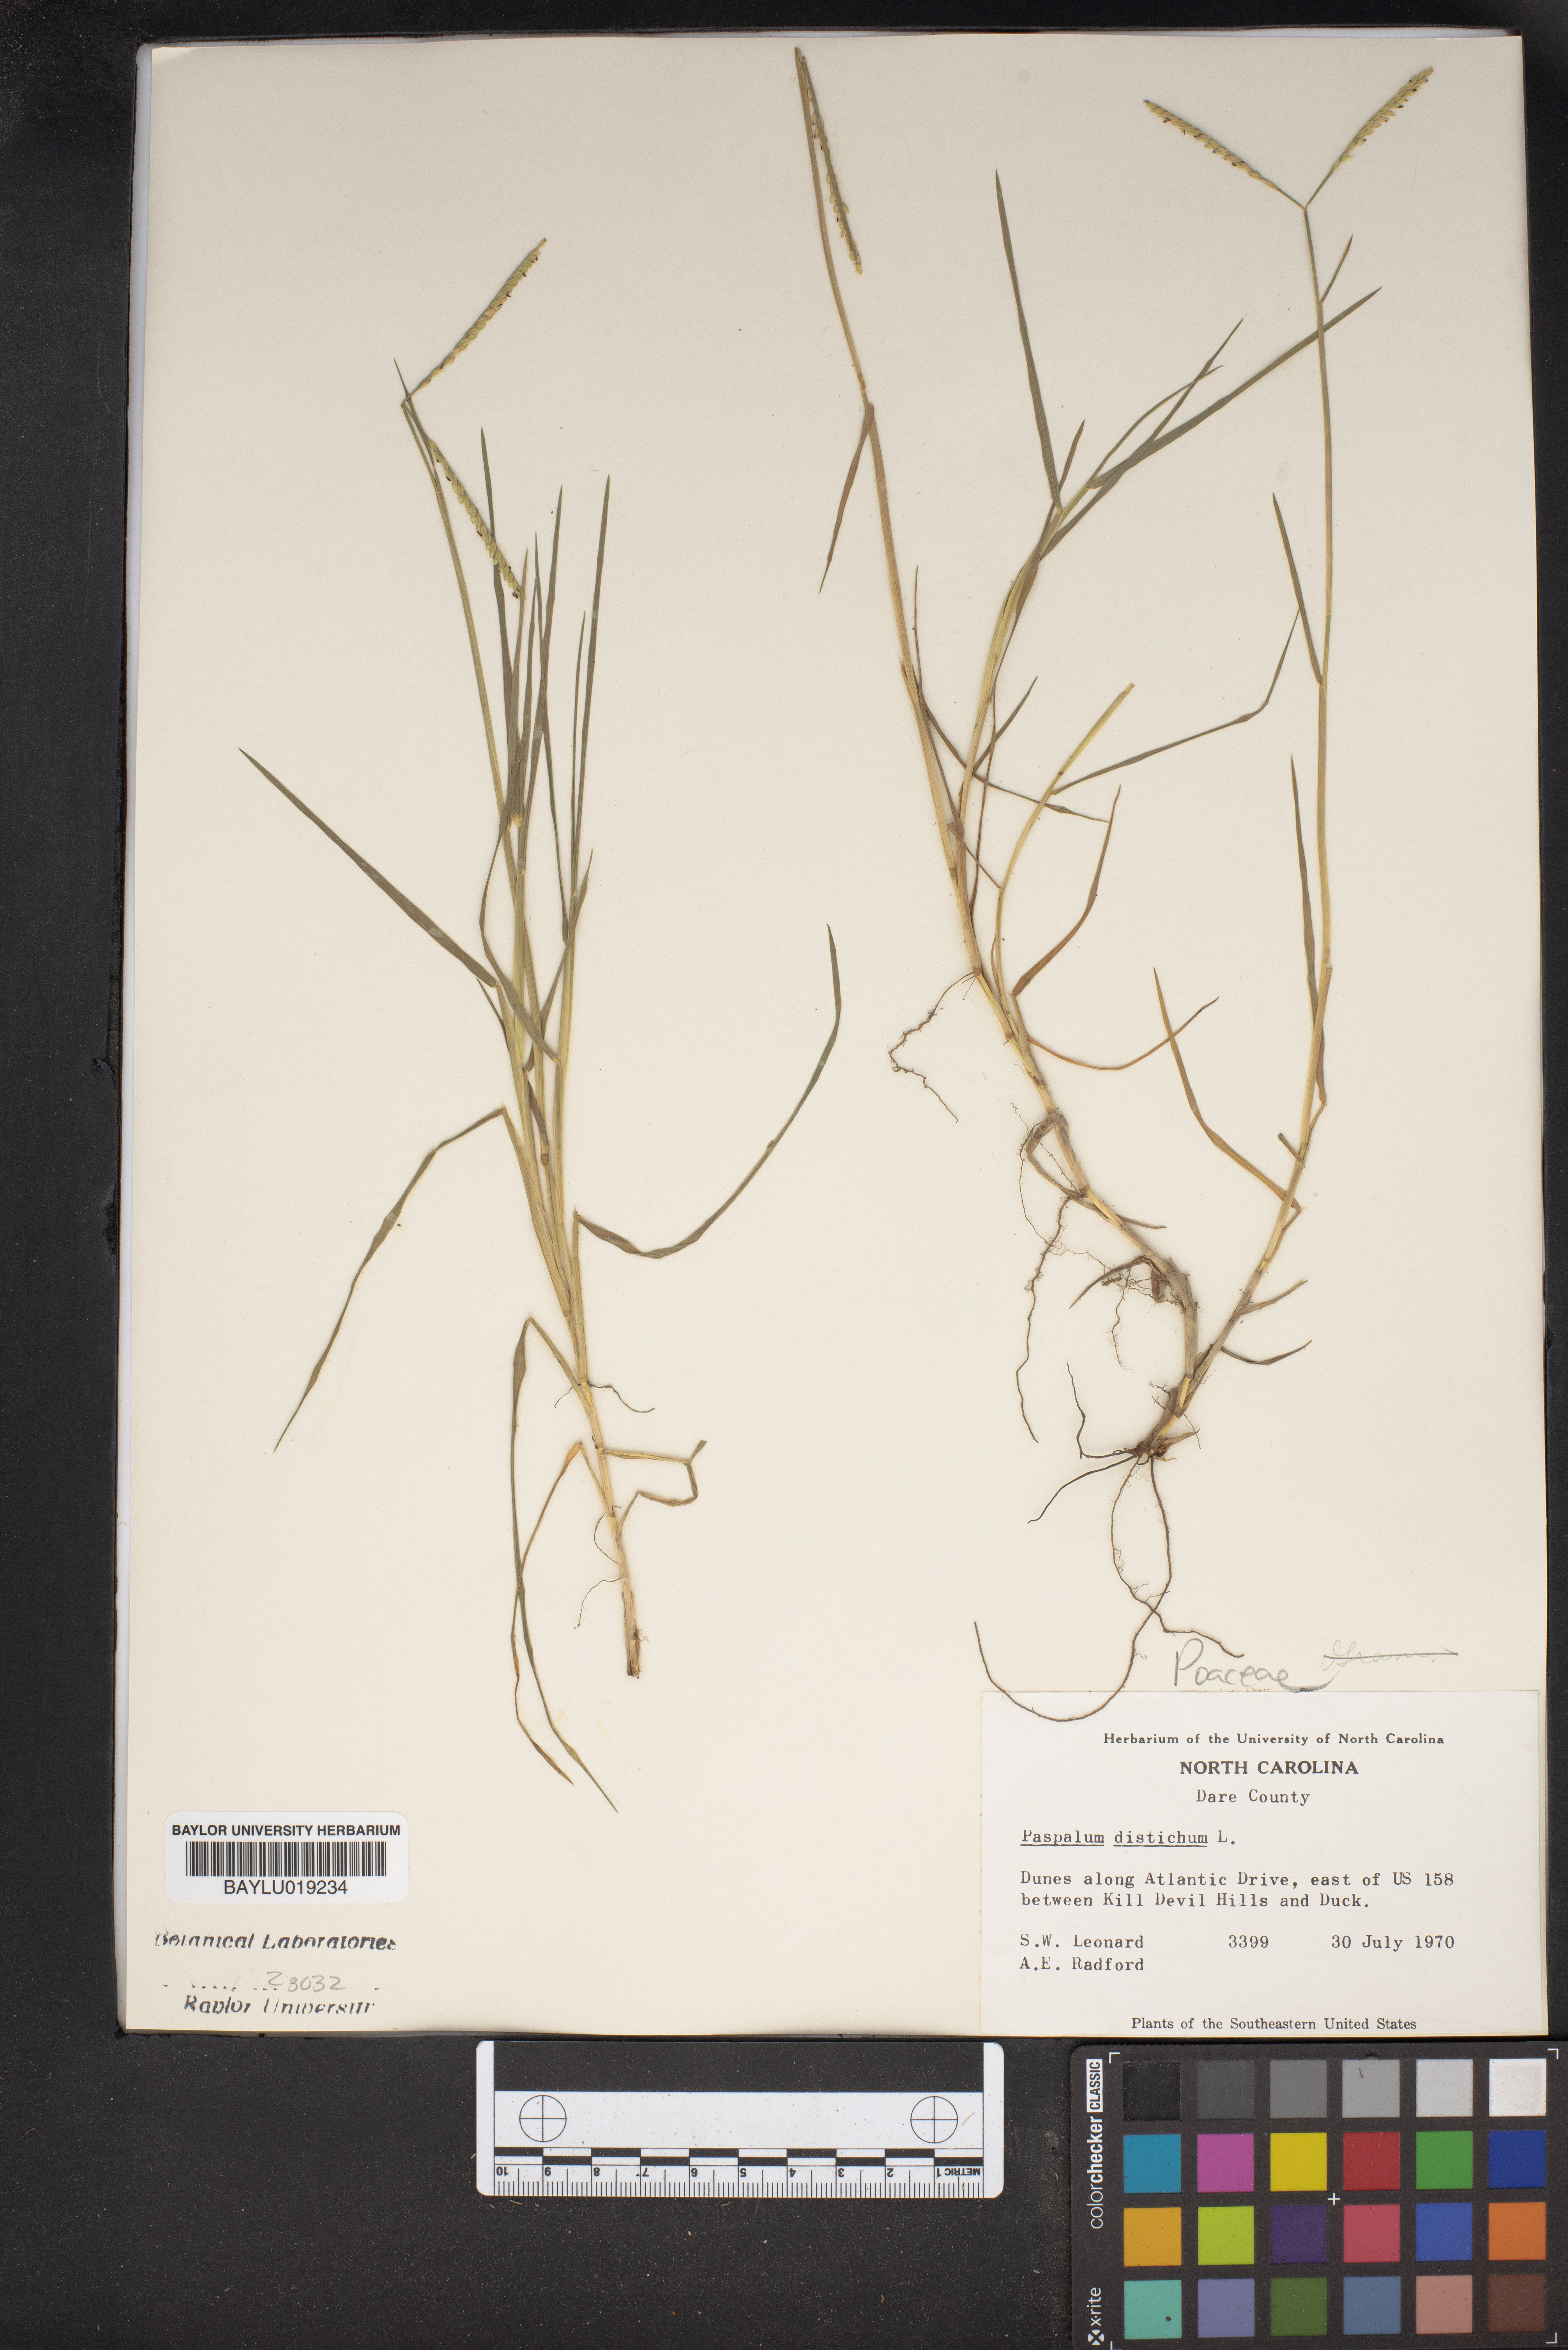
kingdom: Plantae
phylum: Tracheophyta
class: Liliopsida
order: Poales
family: Poaceae
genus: Paspalum
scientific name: Paspalum distichum
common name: Knotgrass
